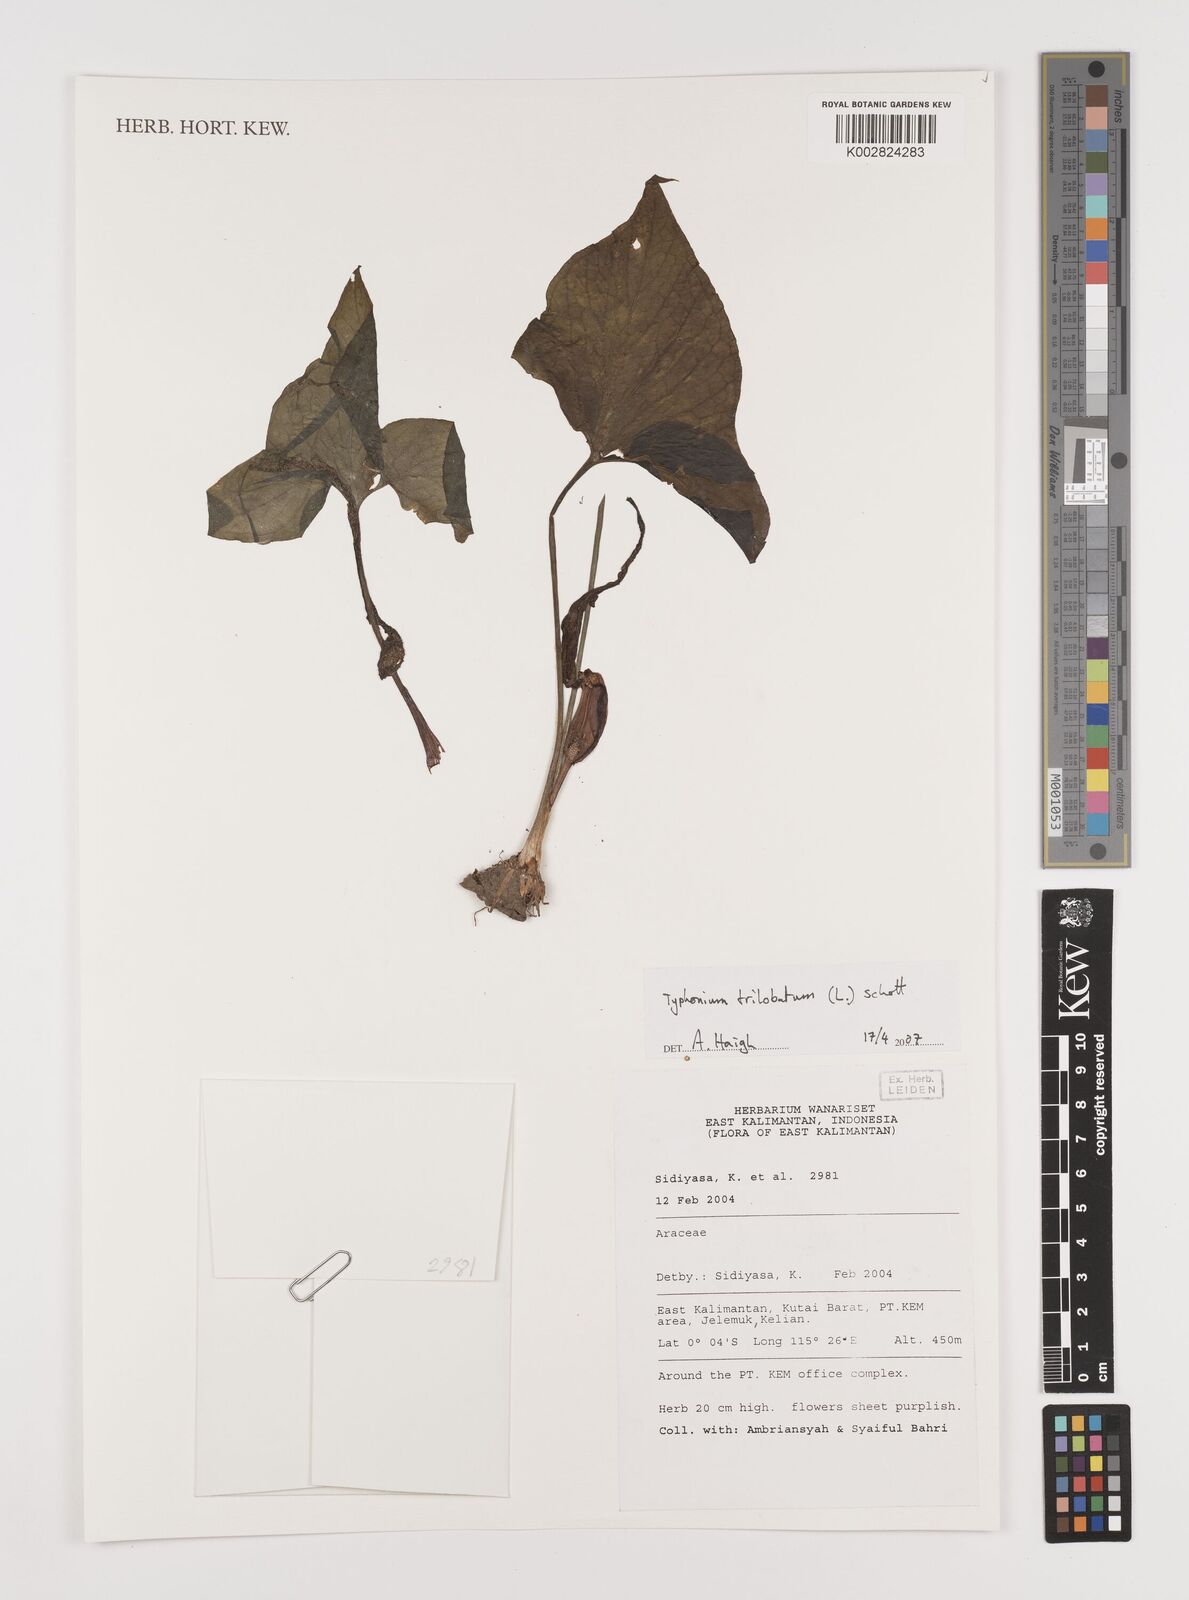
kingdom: Plantae
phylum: Tracheophyta
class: Liliopsida
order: Alismatales
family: Araceae
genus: Typhonium
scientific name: Typhonium trilobatum
